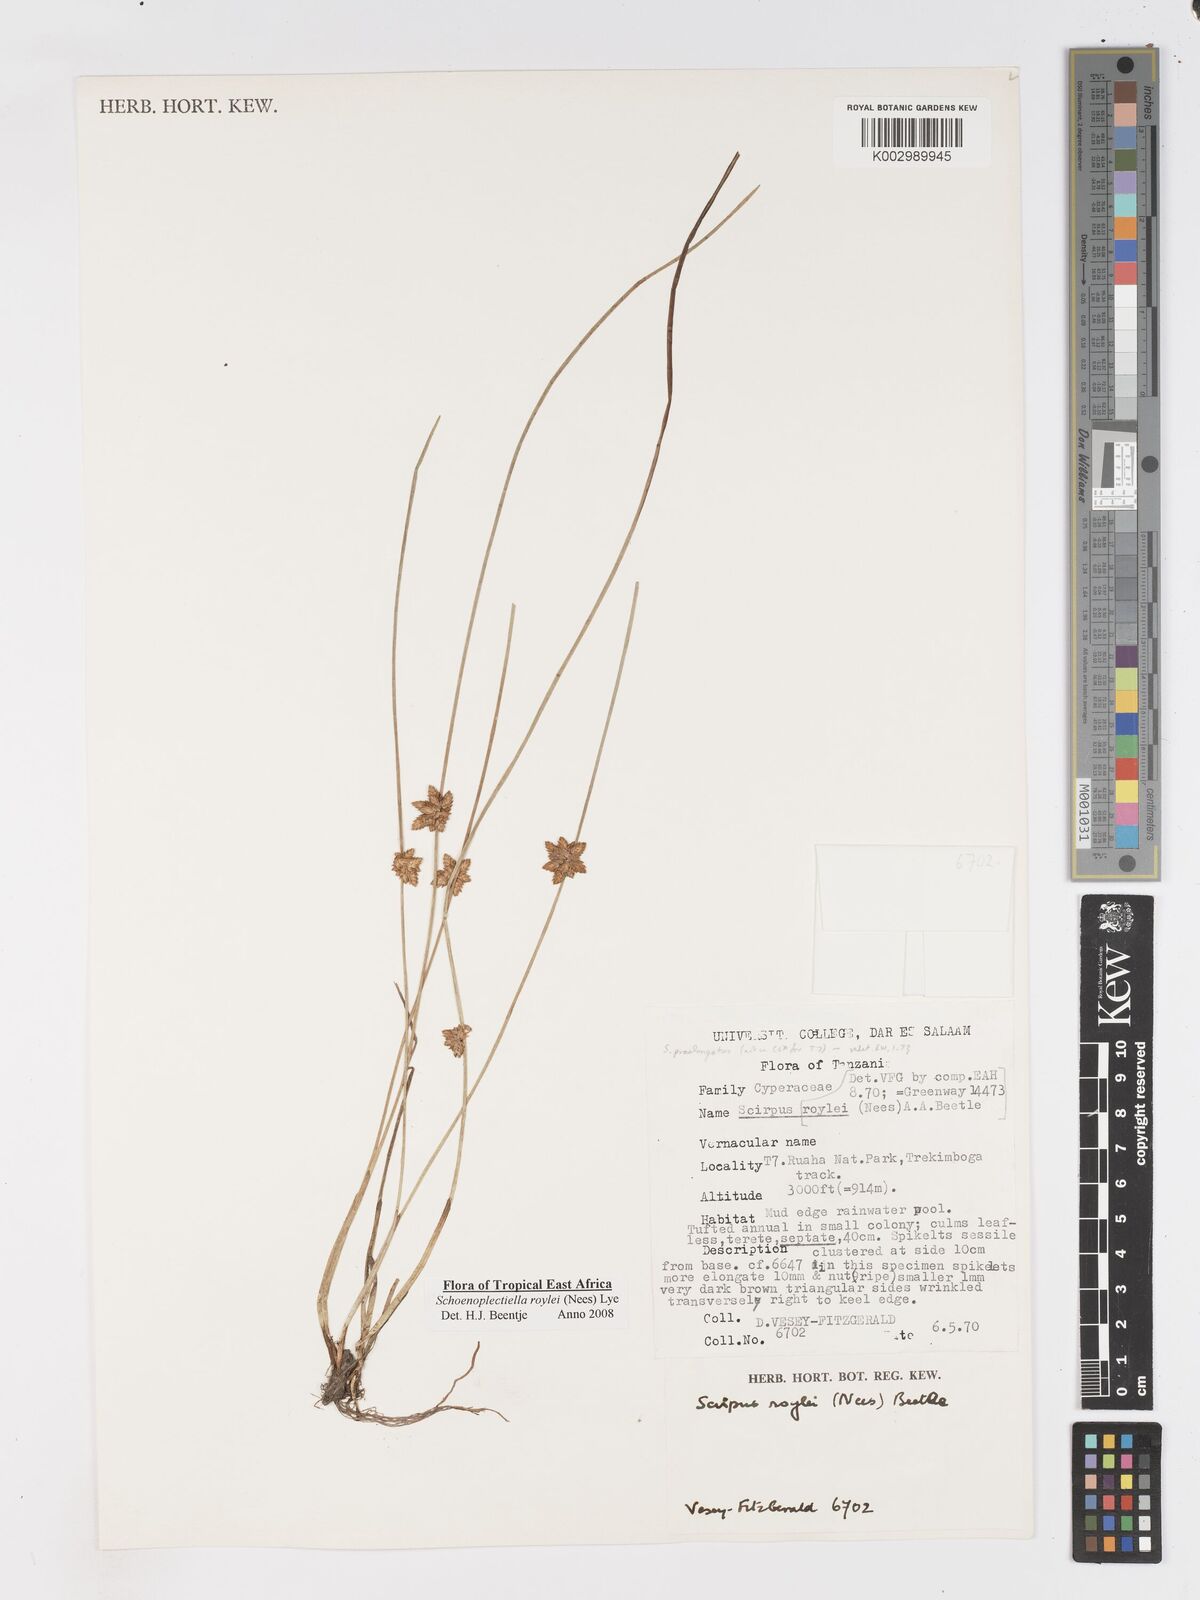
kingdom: Plantae
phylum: Tracheophyta
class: Liliopsida
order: Poales
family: Cyperaceae
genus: Schoenoplectiella
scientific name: Schoenoplectiella roylei
